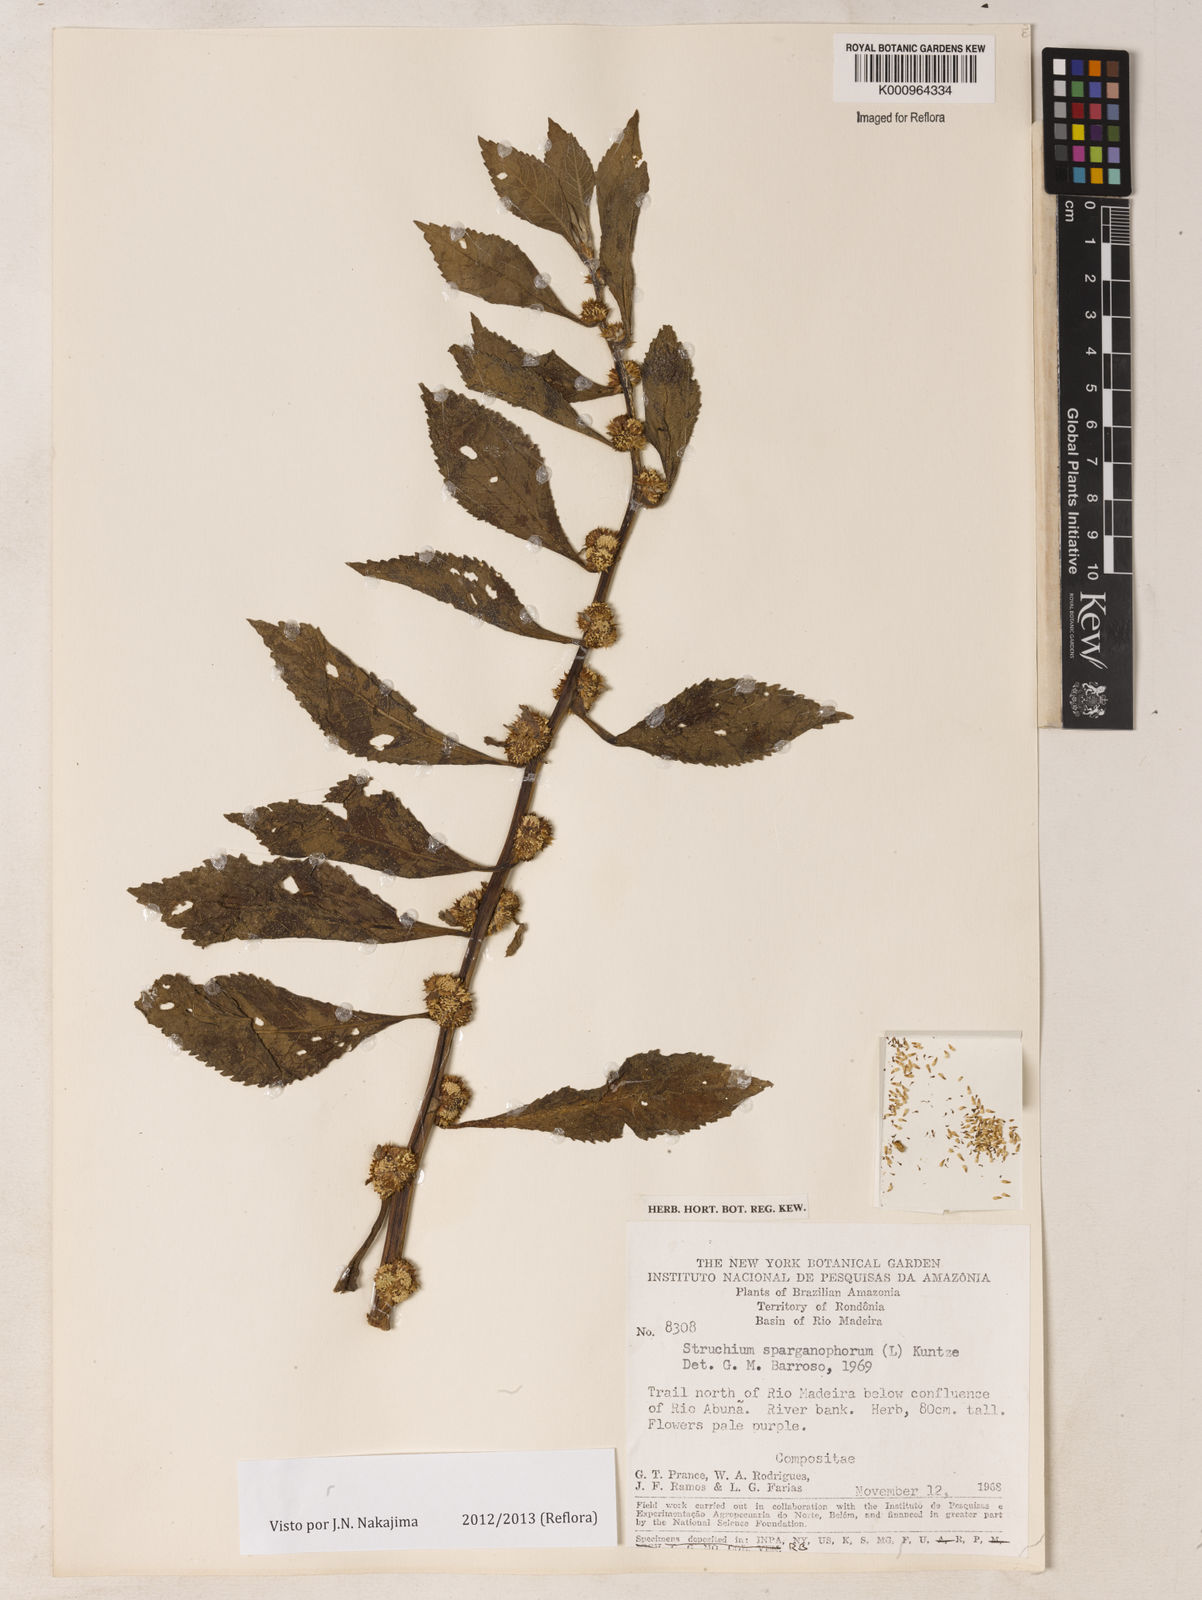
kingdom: Plantae
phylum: Tracheophyta
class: Magnoliopsida
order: Asterales
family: Asteraceae
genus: Struchium
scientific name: Struchium sparganophorum
